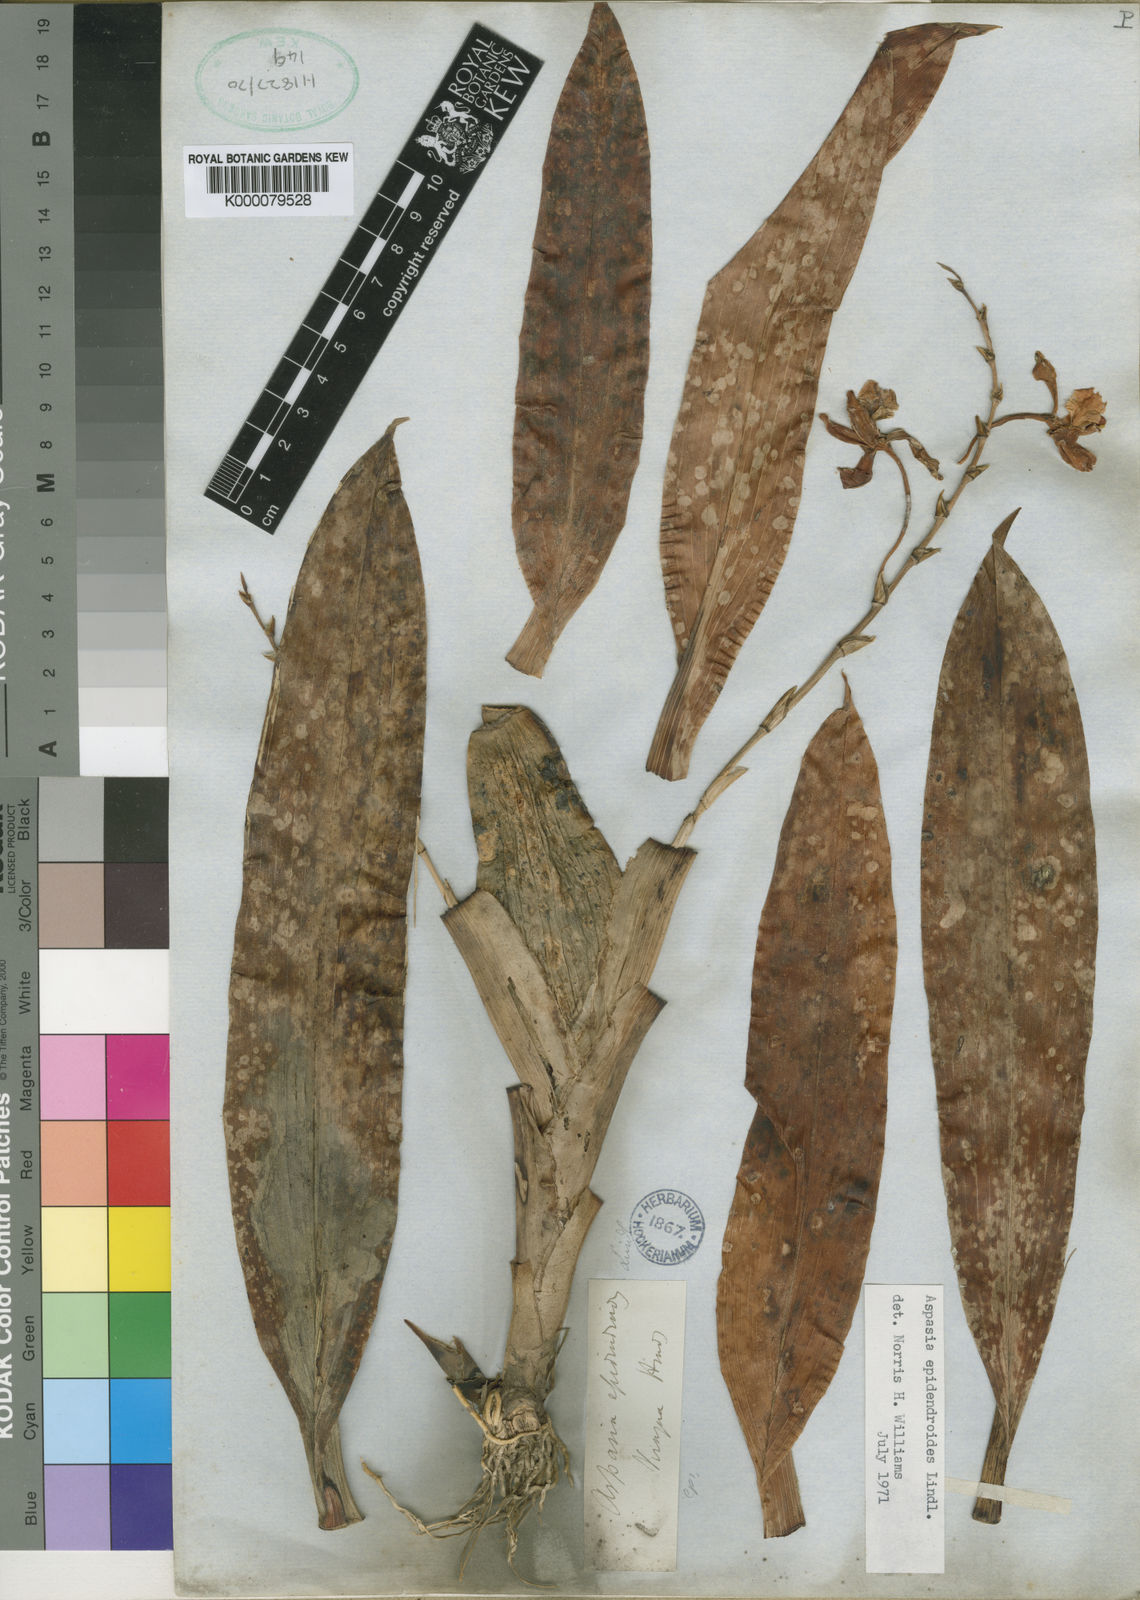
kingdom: Plantae
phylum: Tracheophyta
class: Liliopsida
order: Asparagales
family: Orchidaceae
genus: Aspasia
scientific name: Aspasia epidendroides
